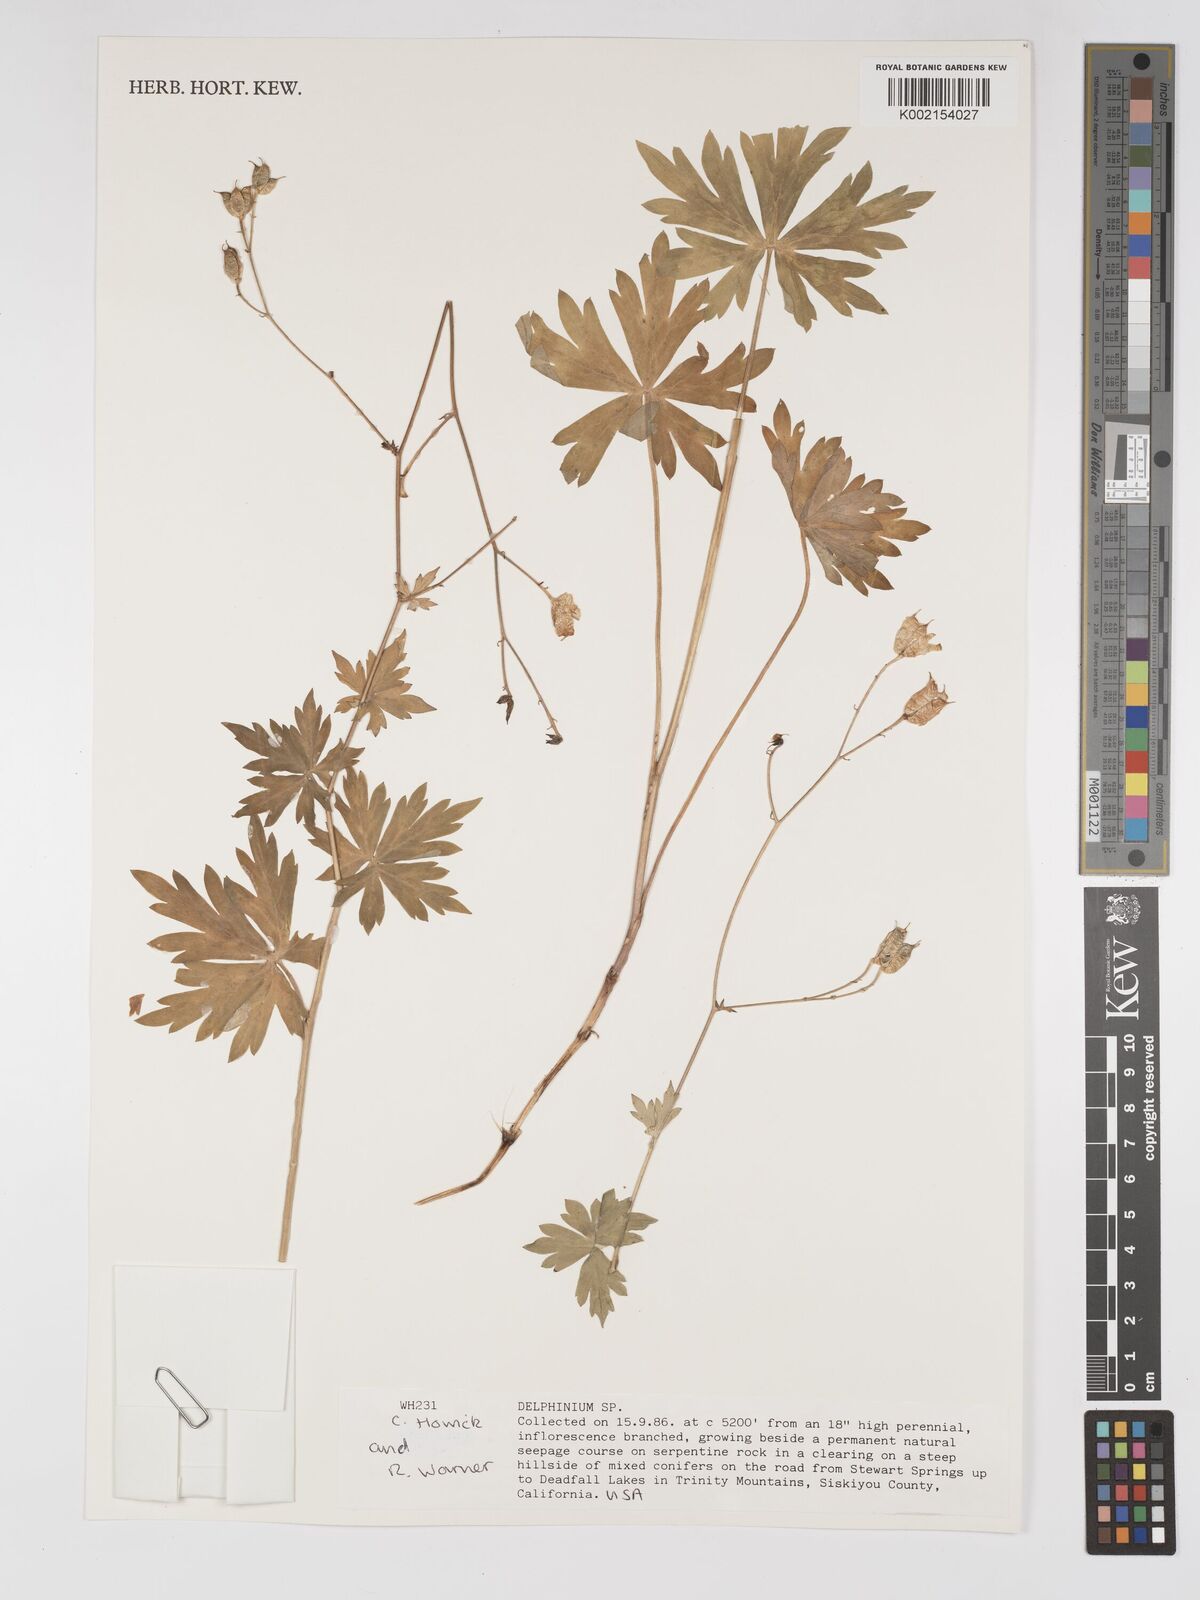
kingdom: Plantae
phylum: Tracheophyta
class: Magnoliopsida
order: Ranunculales
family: Ranunculaceae
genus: Delphinium
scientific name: Delphinium
